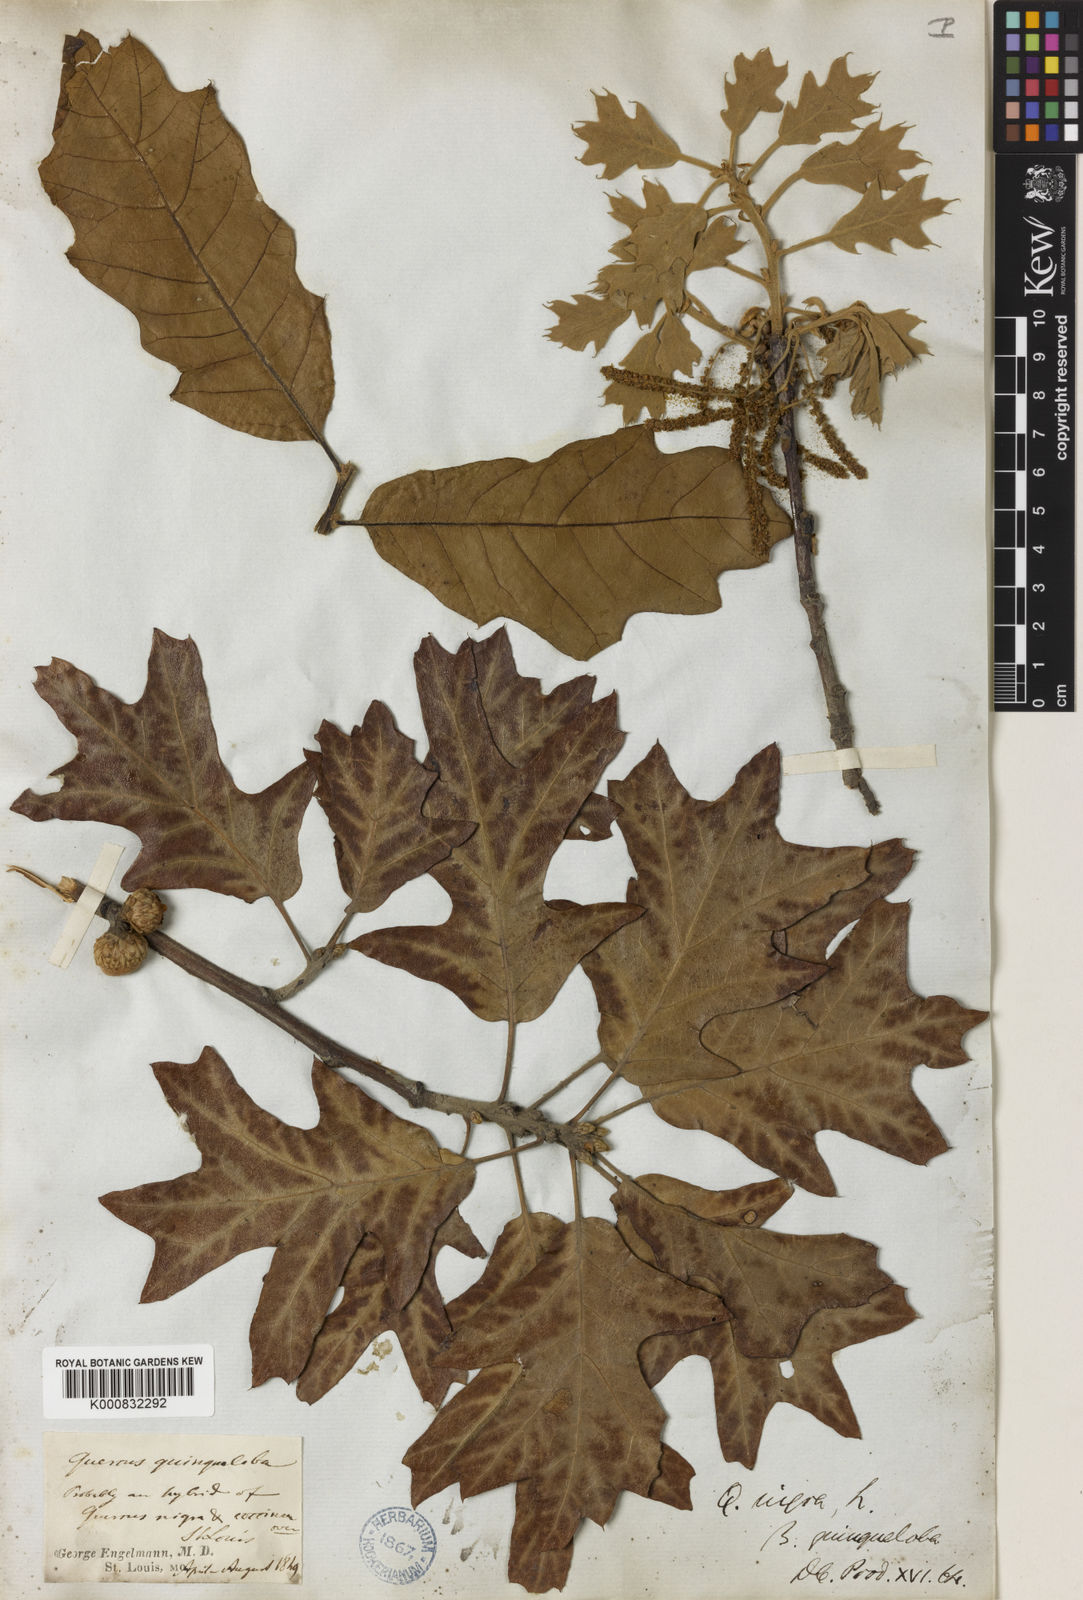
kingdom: Plantae
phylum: Tracheophyta
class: Magnoliopsida
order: Fagales
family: Fagaceae
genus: Quercus
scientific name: Quercus
